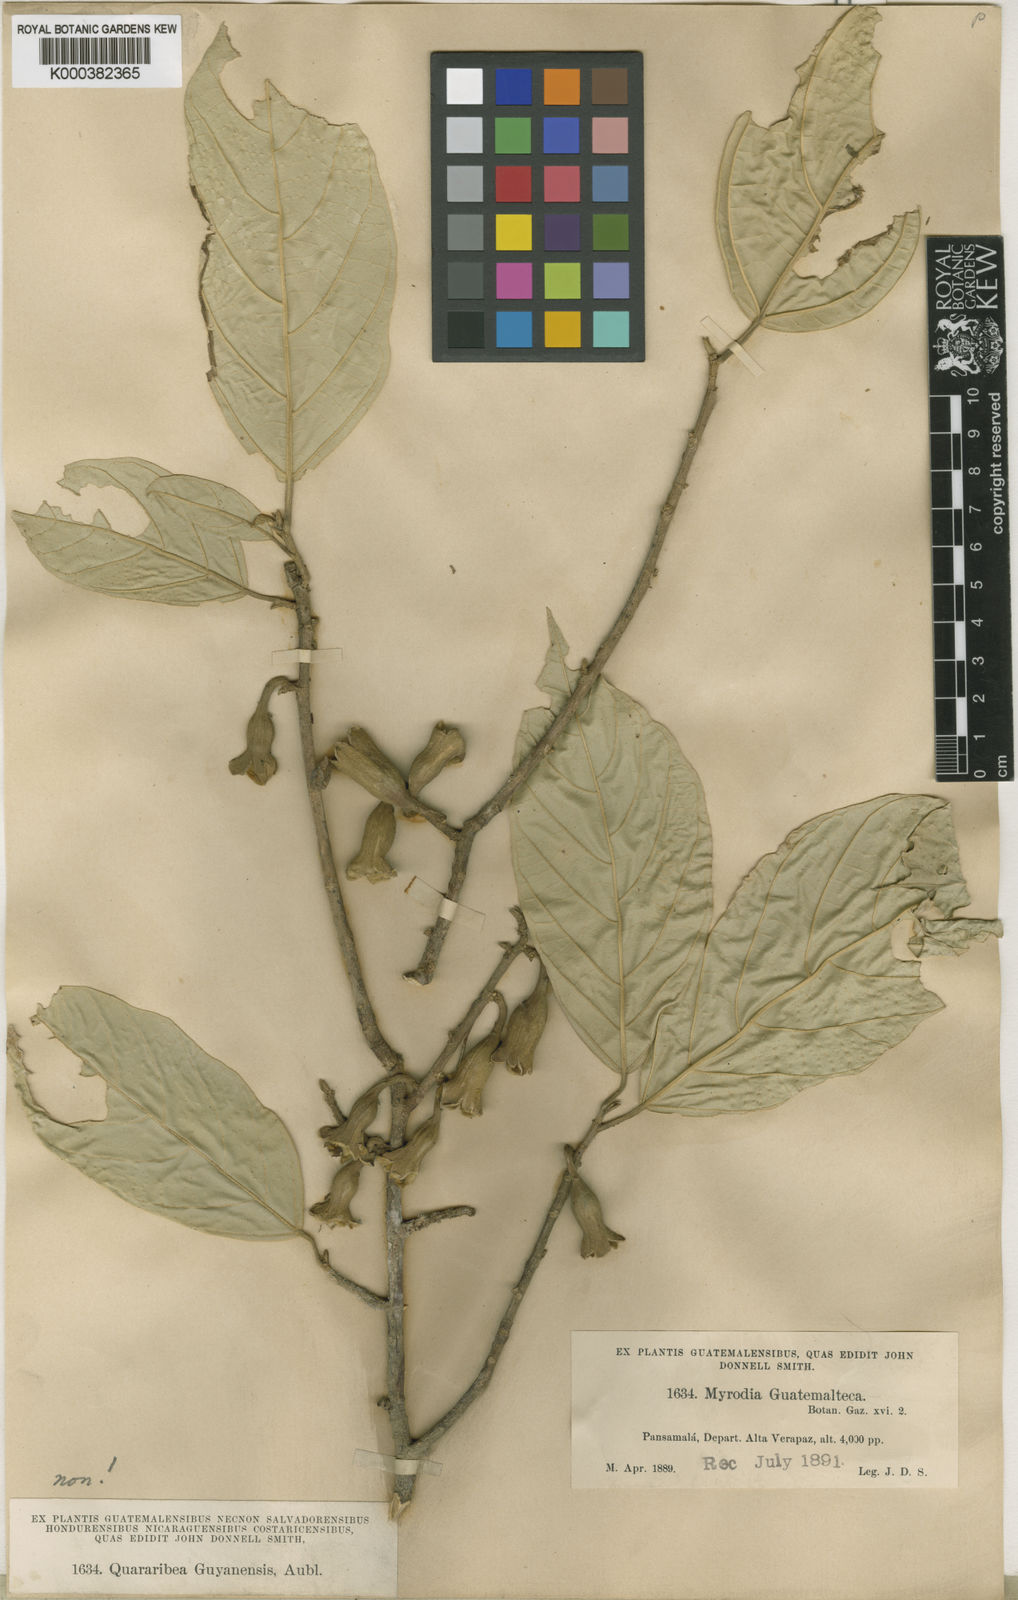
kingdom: Plantae
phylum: Tracheophyta
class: Magnoliopsida
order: Malvales
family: Malvaceae
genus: Quararibea
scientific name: Quararibea guatemalteca
